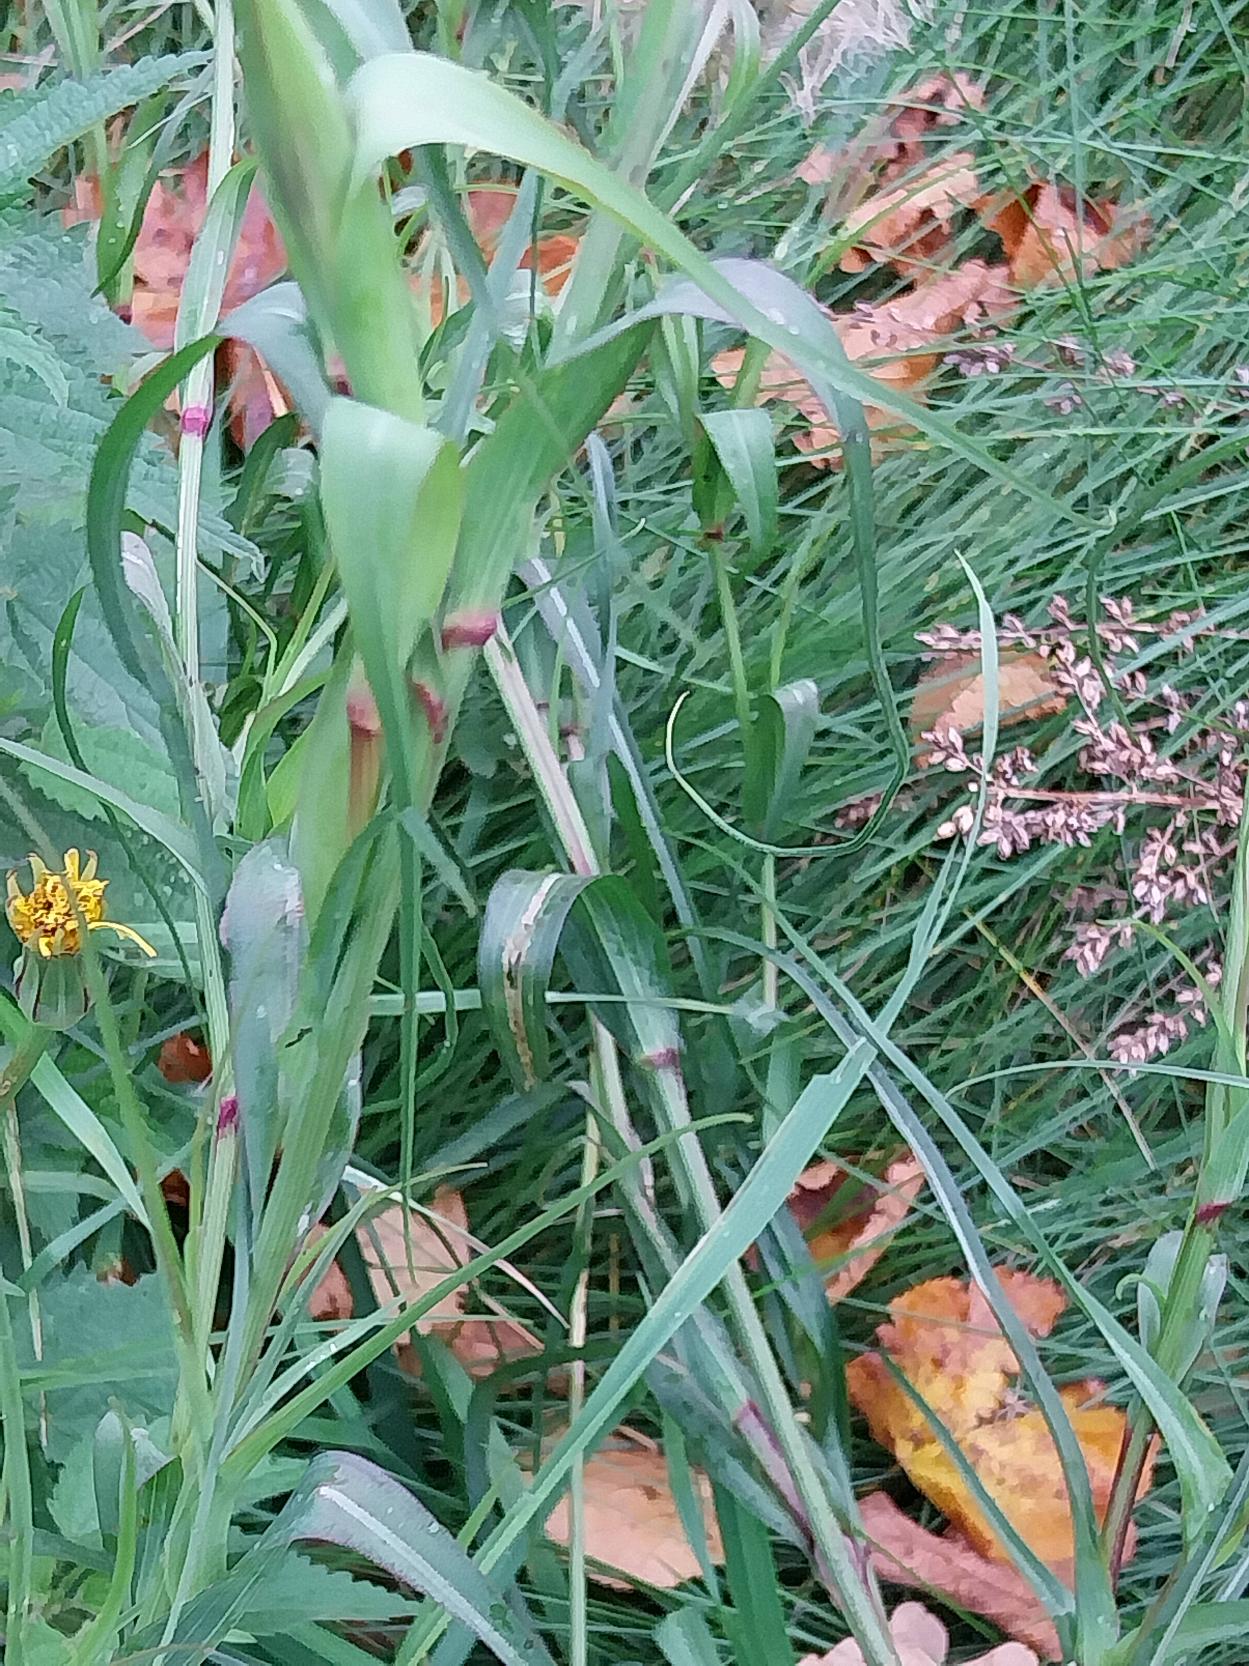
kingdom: Plantae
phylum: Tracheophyta
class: Magnoliopsida
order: Asterales
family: Asteraceae
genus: Tragopogon
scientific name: Tragopogon minor
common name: Småkronet gedeskæg
